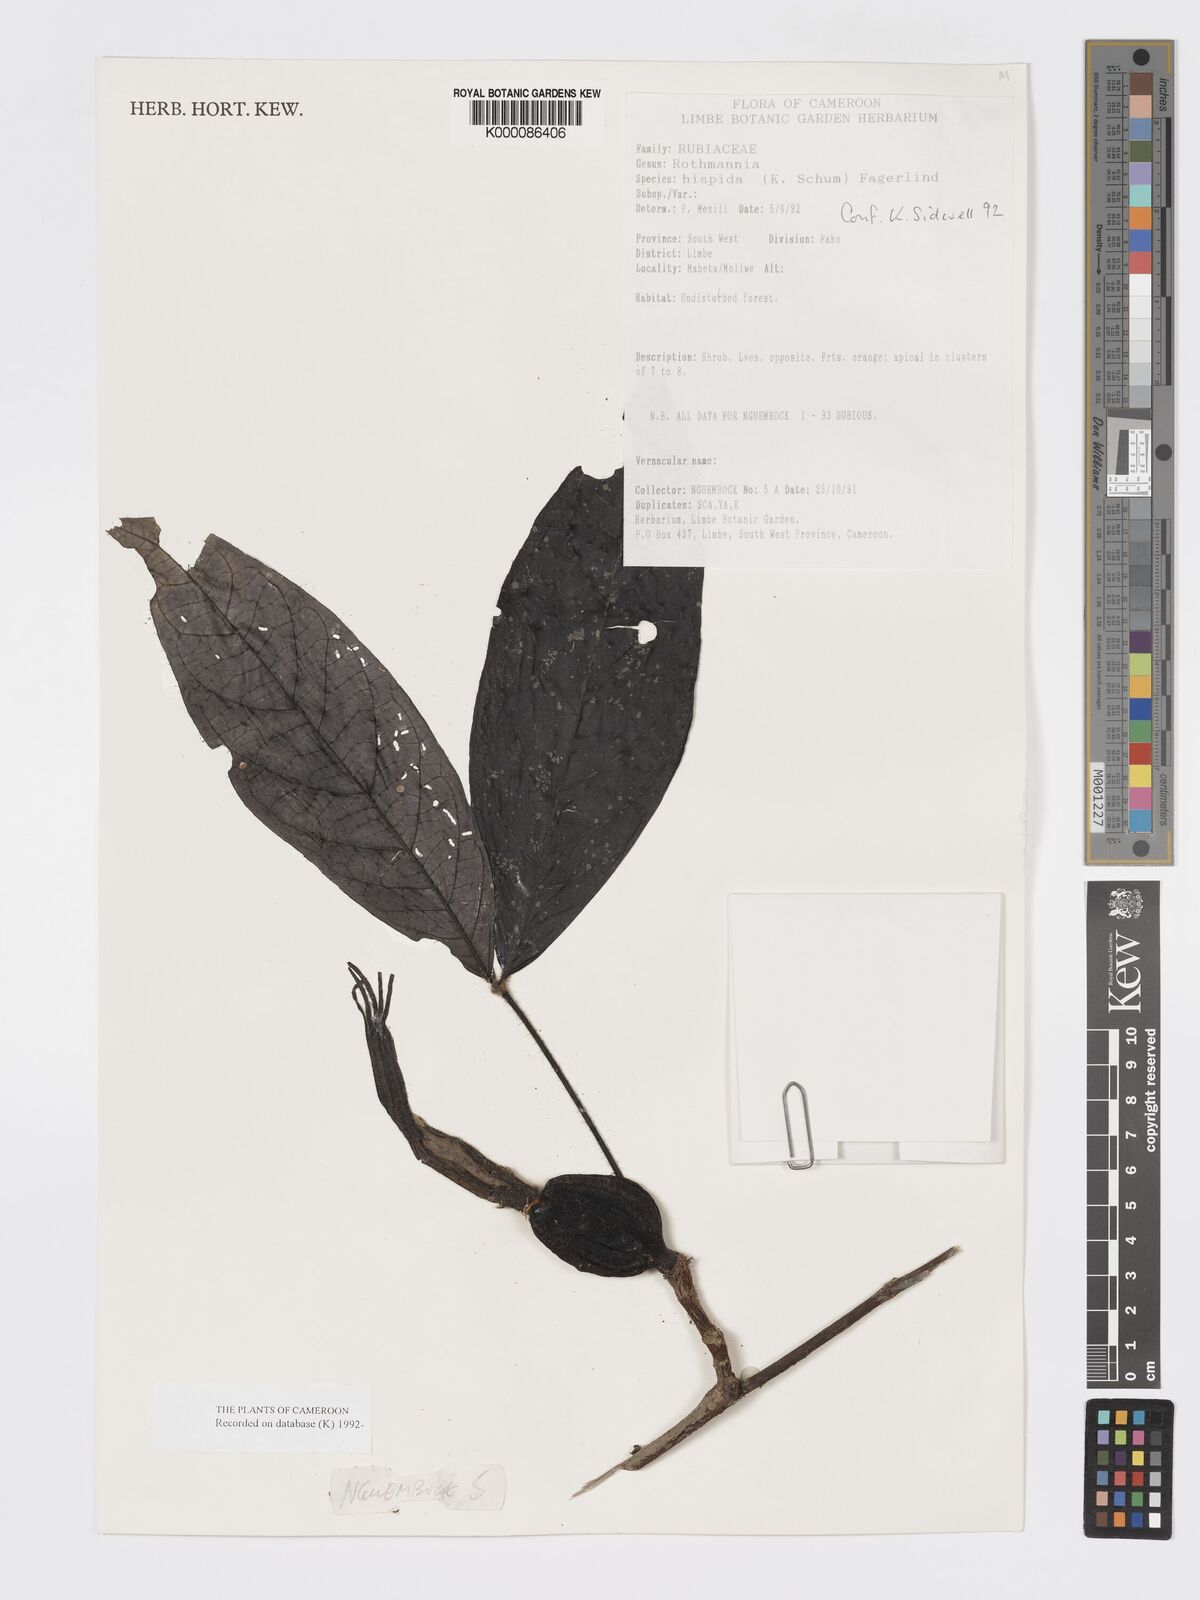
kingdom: Plantae
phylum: Tracheophyta
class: Magnoliopsida
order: Gentianales
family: Rubiaceae
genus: Rothmannia
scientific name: Rothmannia hispida
